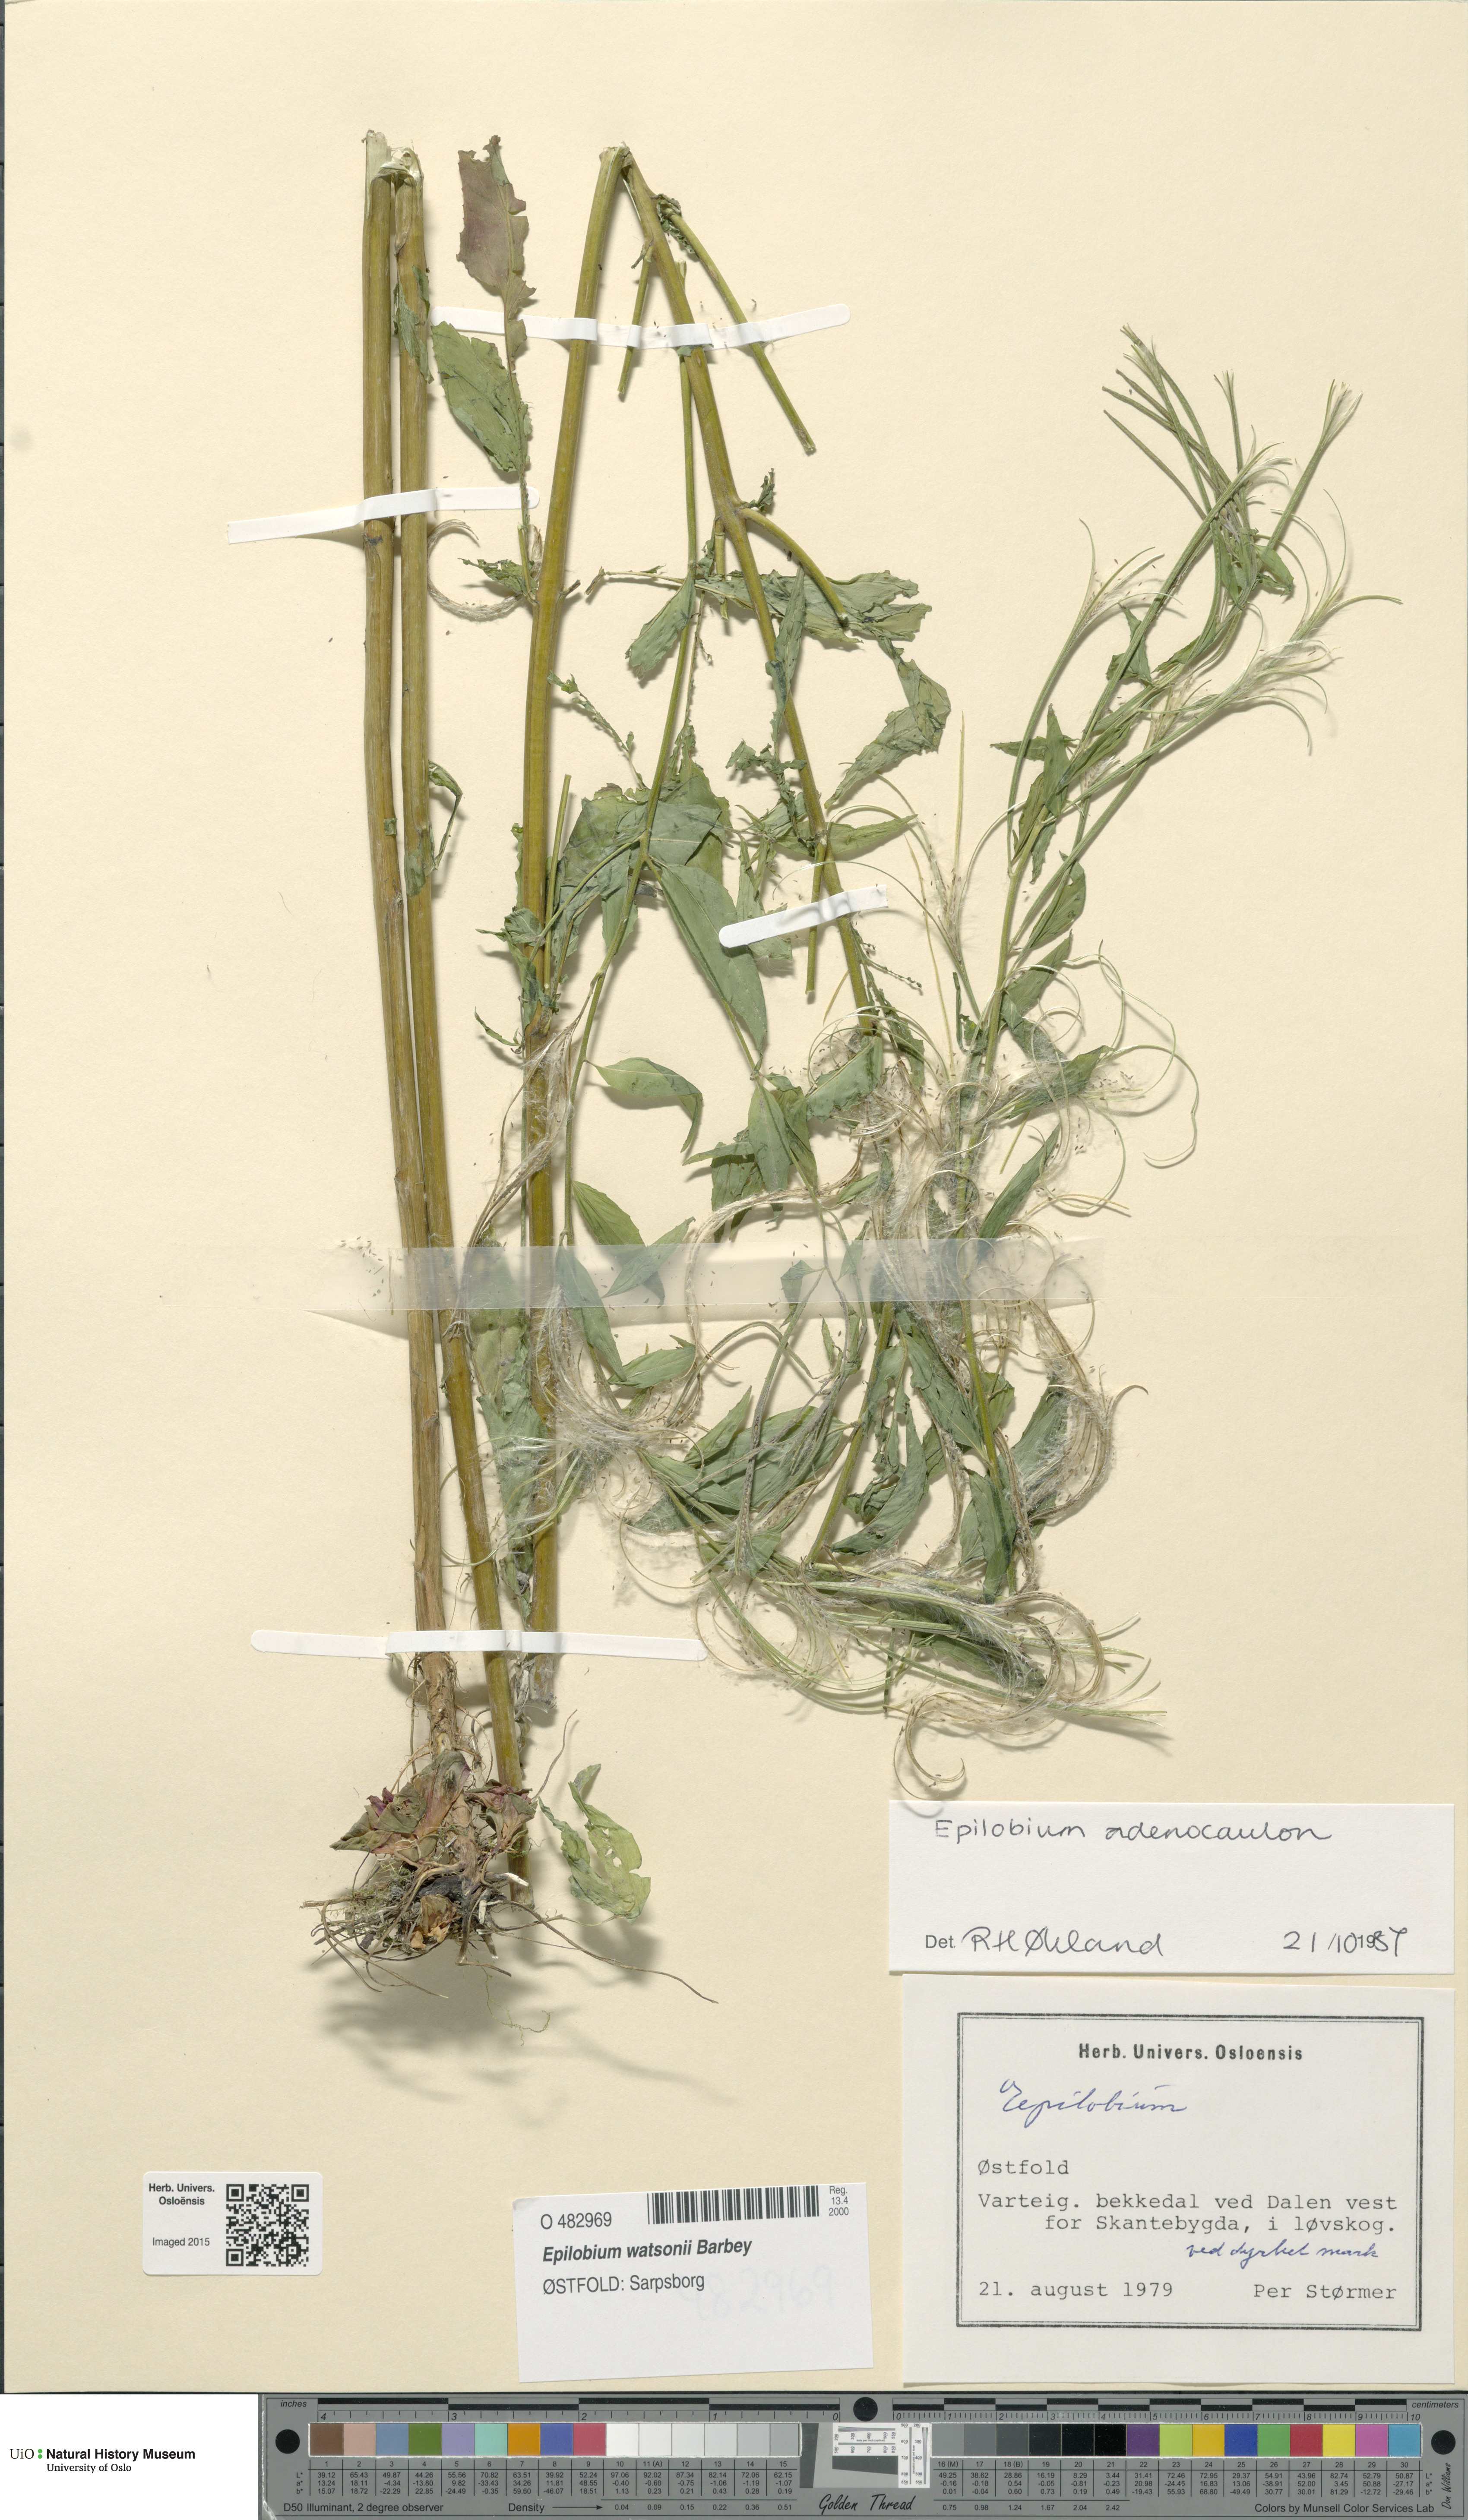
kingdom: Plantae
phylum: Tracheophyta
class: Magnoliopsida
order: Myrtales
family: Onagraceae
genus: Epilobium
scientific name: Epilobium ciliatum
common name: American willowherb
